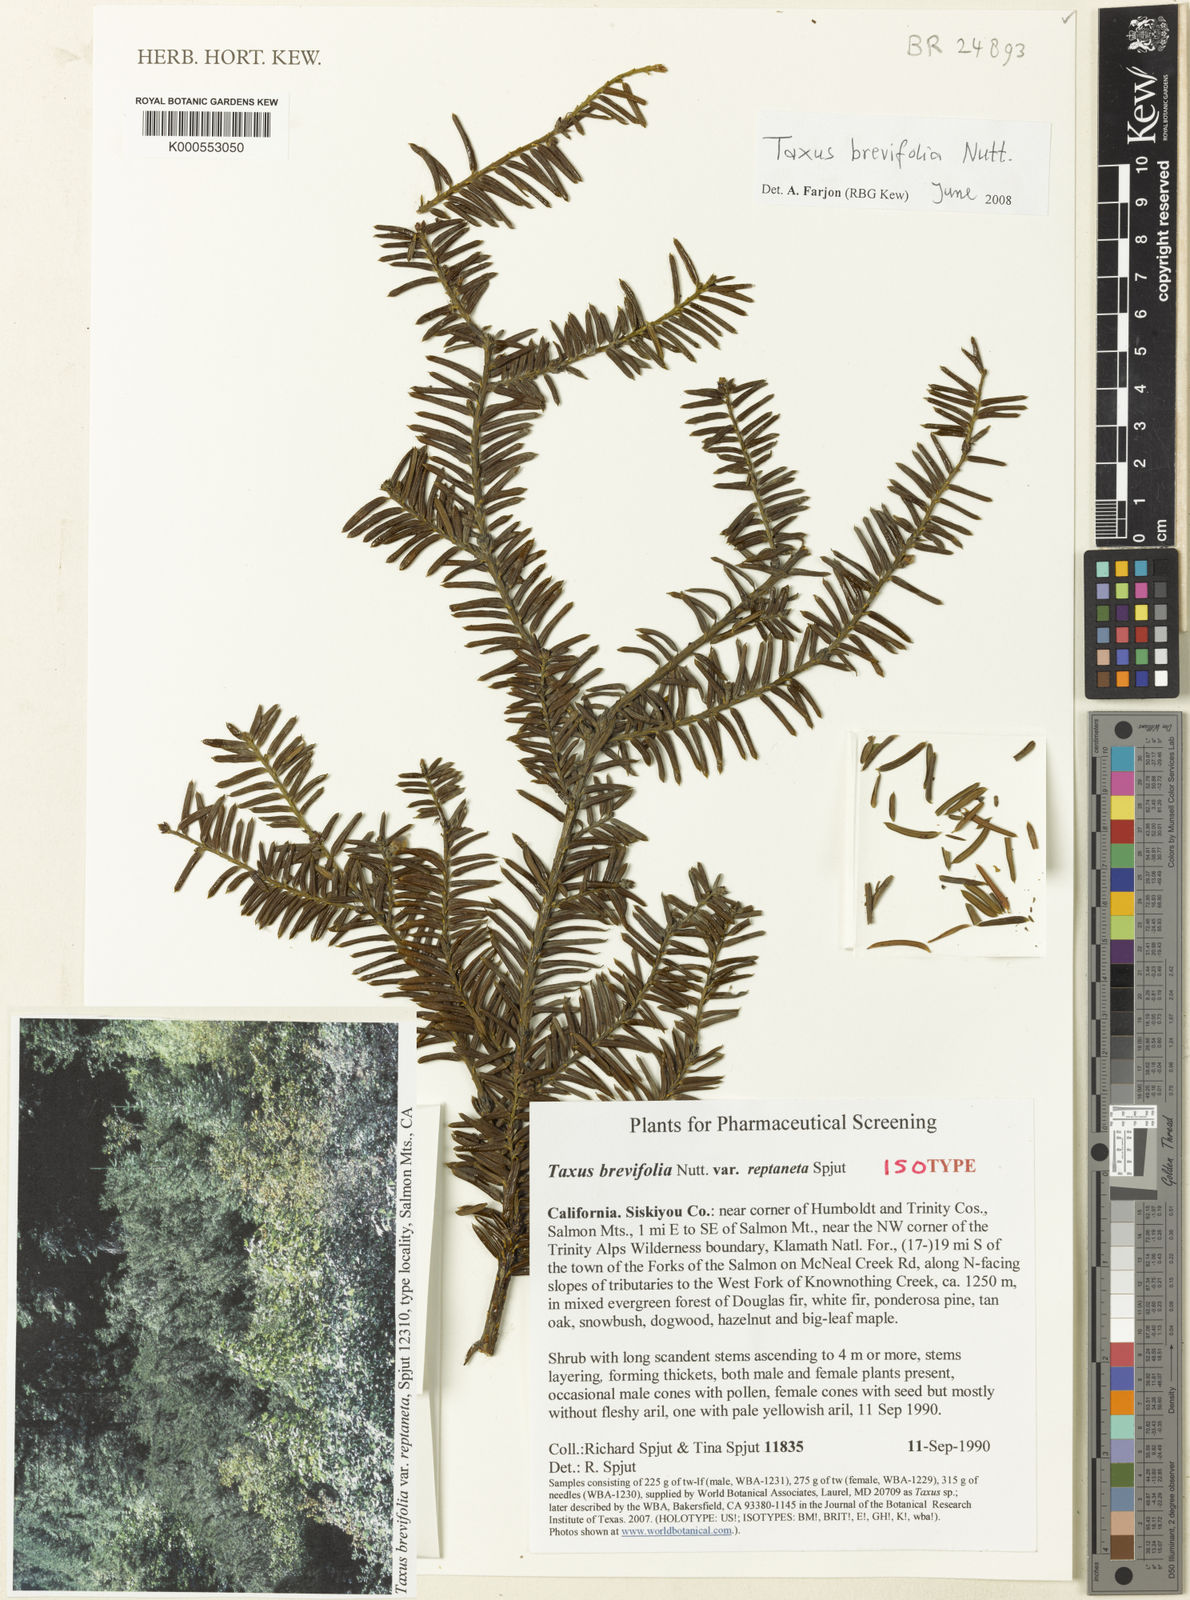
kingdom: Plantae
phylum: Tracheophyta
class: Pinopsida
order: Pinales
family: Taxaceae
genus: Taxus
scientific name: Taxus brevifolia
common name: Pacific yew
